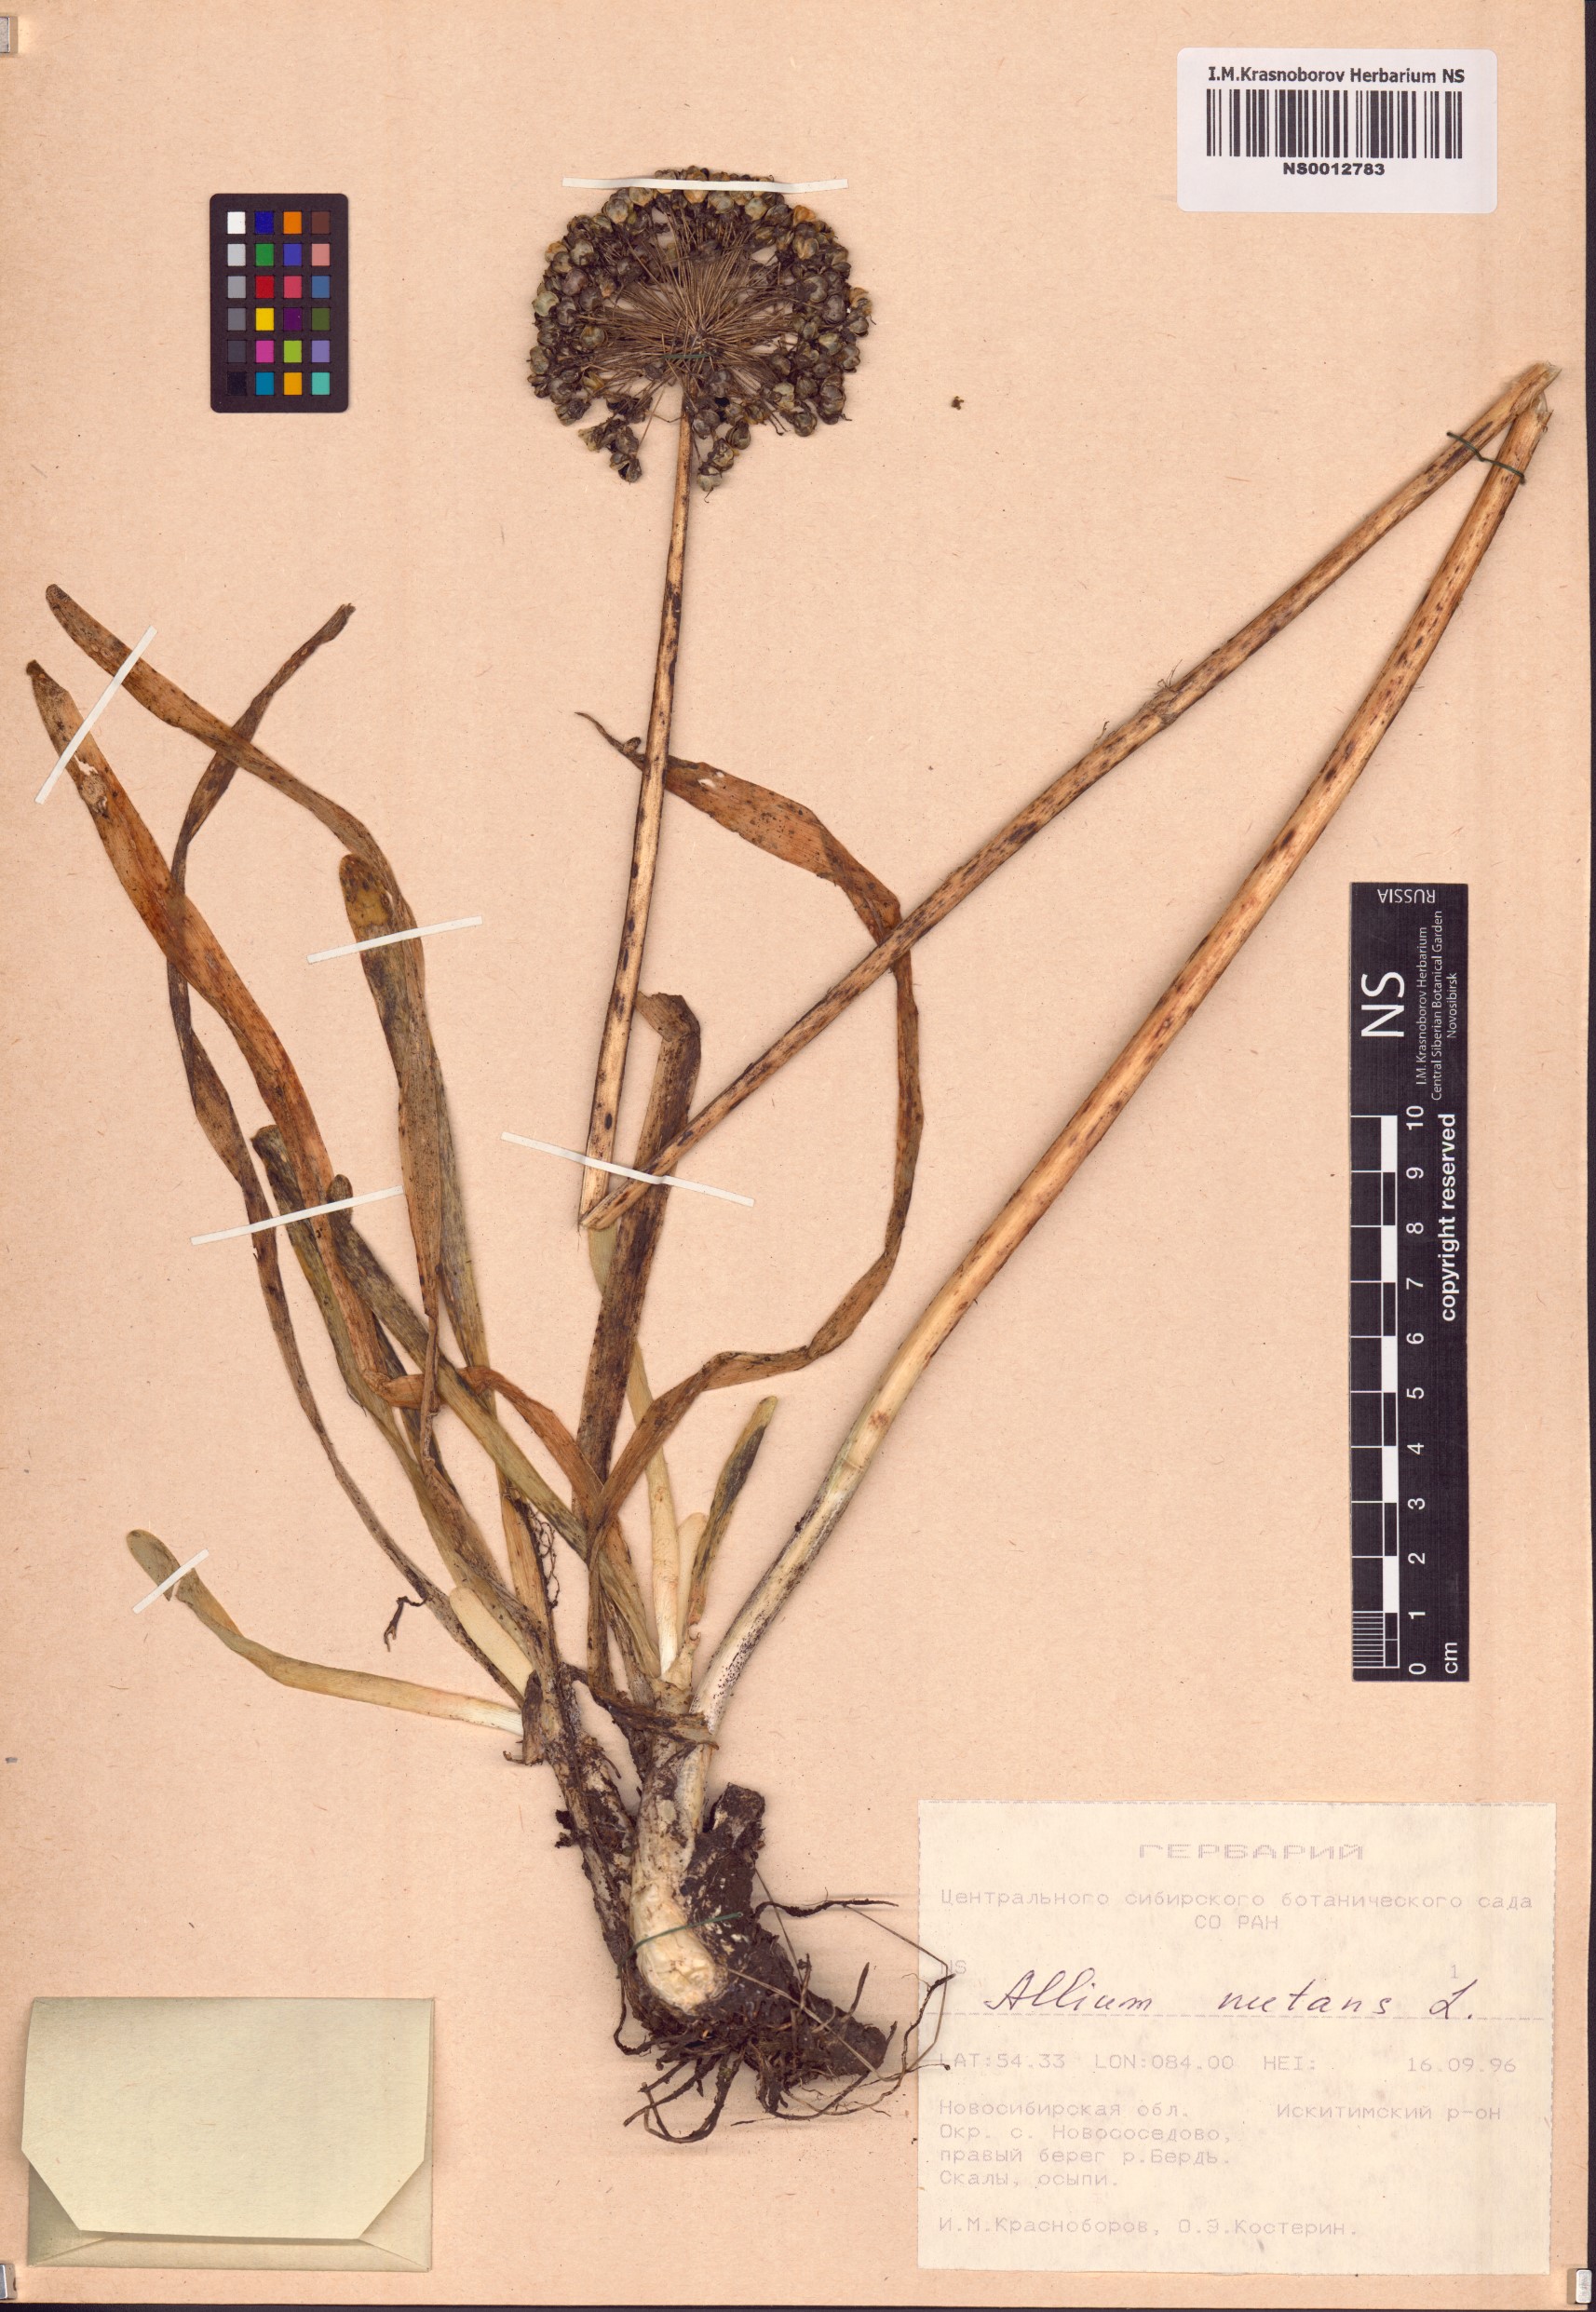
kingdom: Plantae
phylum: Tracheophyta
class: Liliopsida
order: Asparagales
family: Amaryllidaceae
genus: Allium
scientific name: Allium nutans
